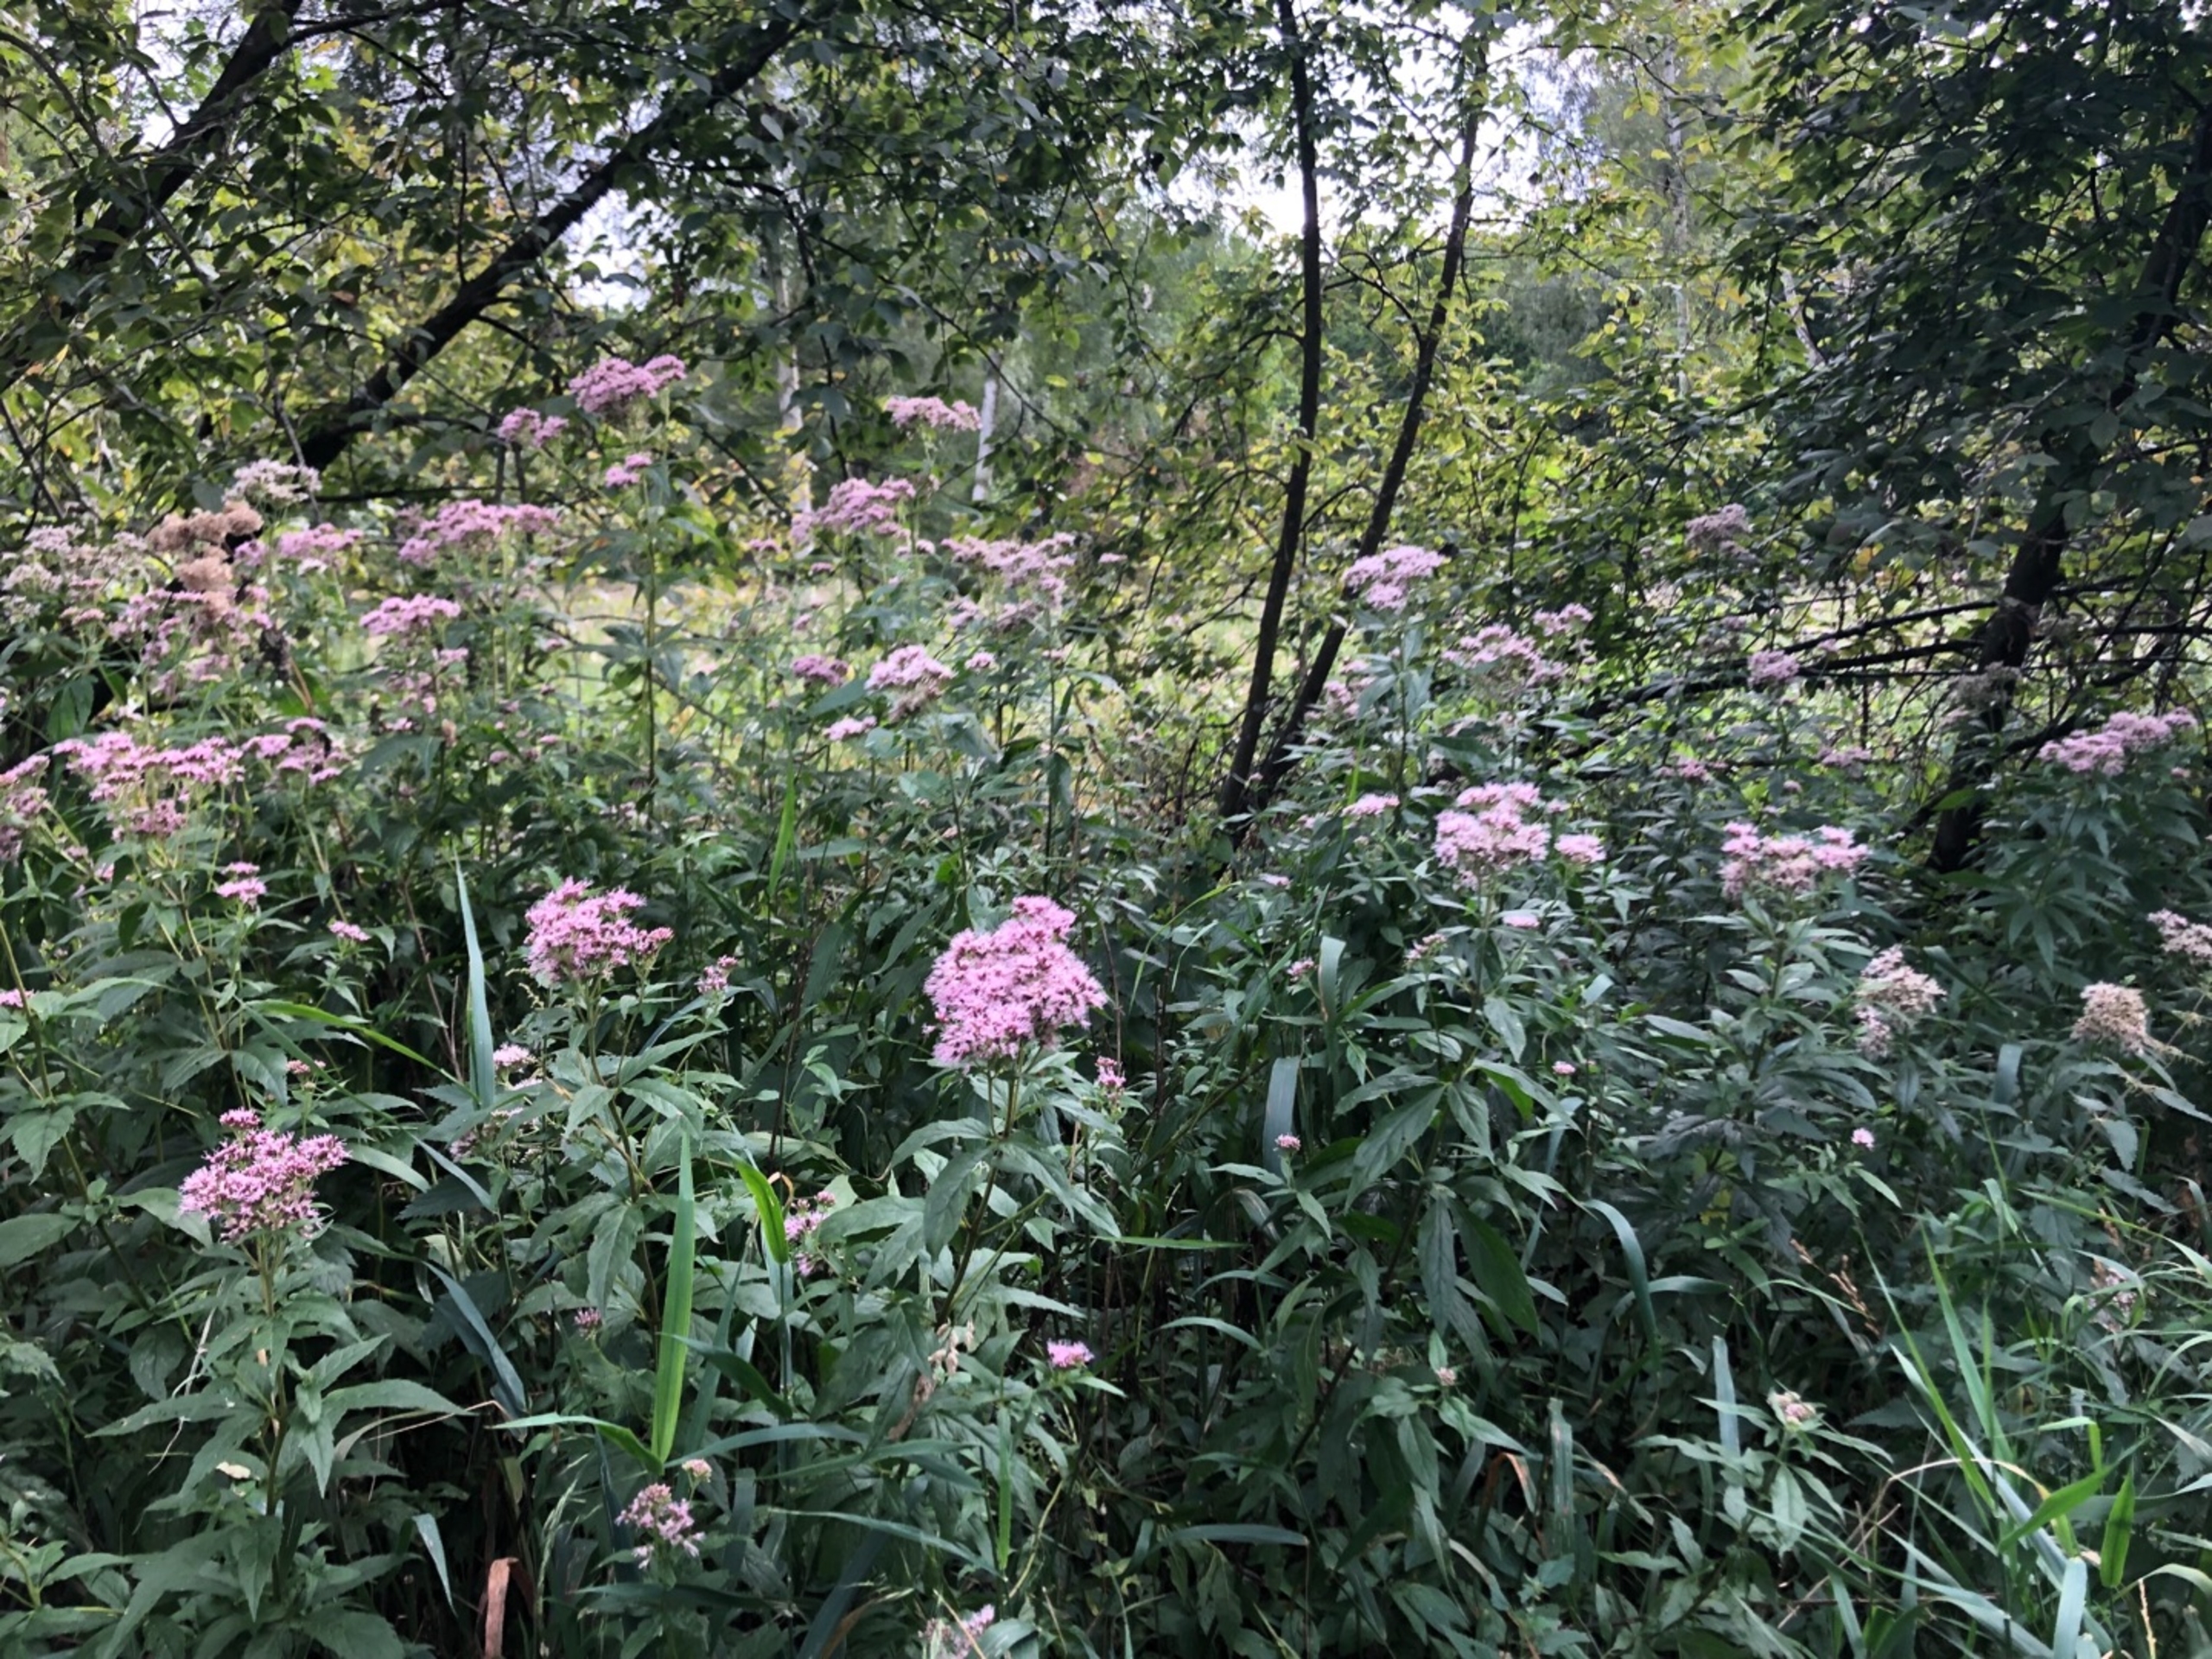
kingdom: Plantae
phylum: Tracheophyta
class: Magnoliopsida
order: Asterales
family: Asteraceae
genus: Eupatorium
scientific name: Eupatorium cannabinum
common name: Hjortetrøst
